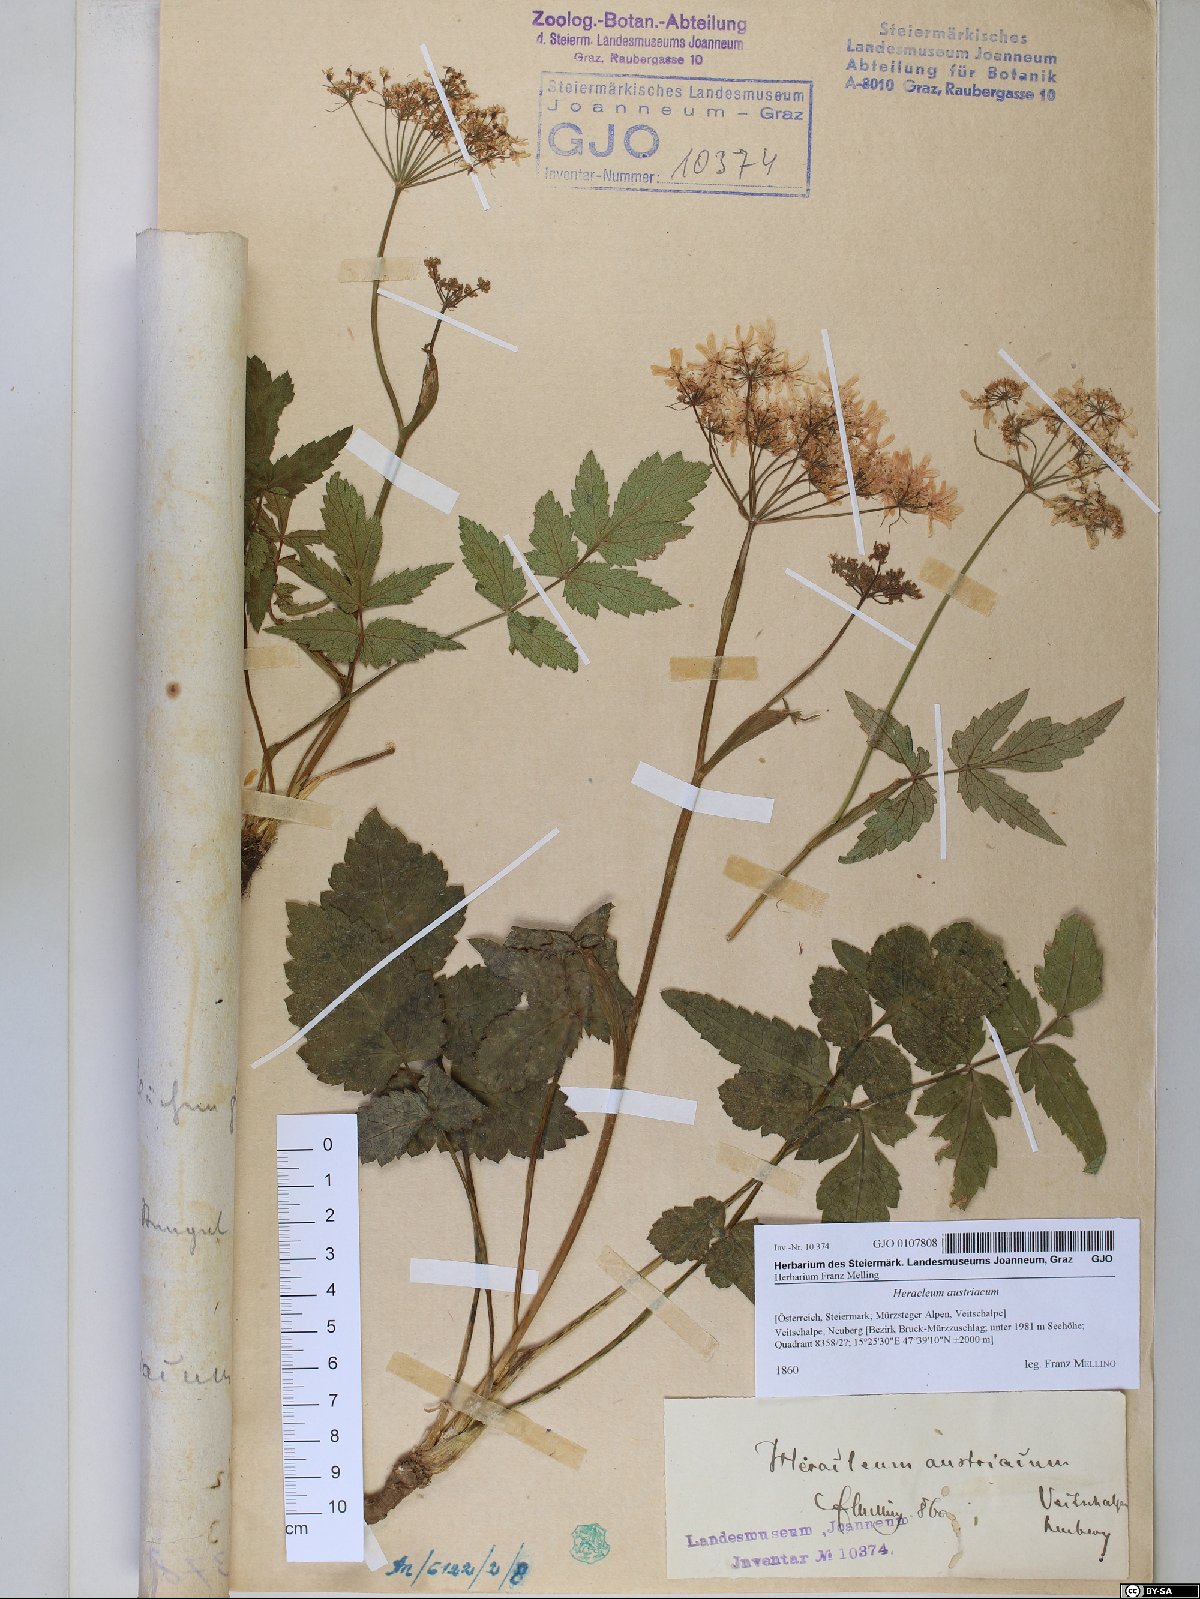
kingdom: Plantae
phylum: Tracheophyta
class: Magnoliopsida
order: Apiales
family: Apiaceae
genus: Heracleum
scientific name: Heracleum austriacum
